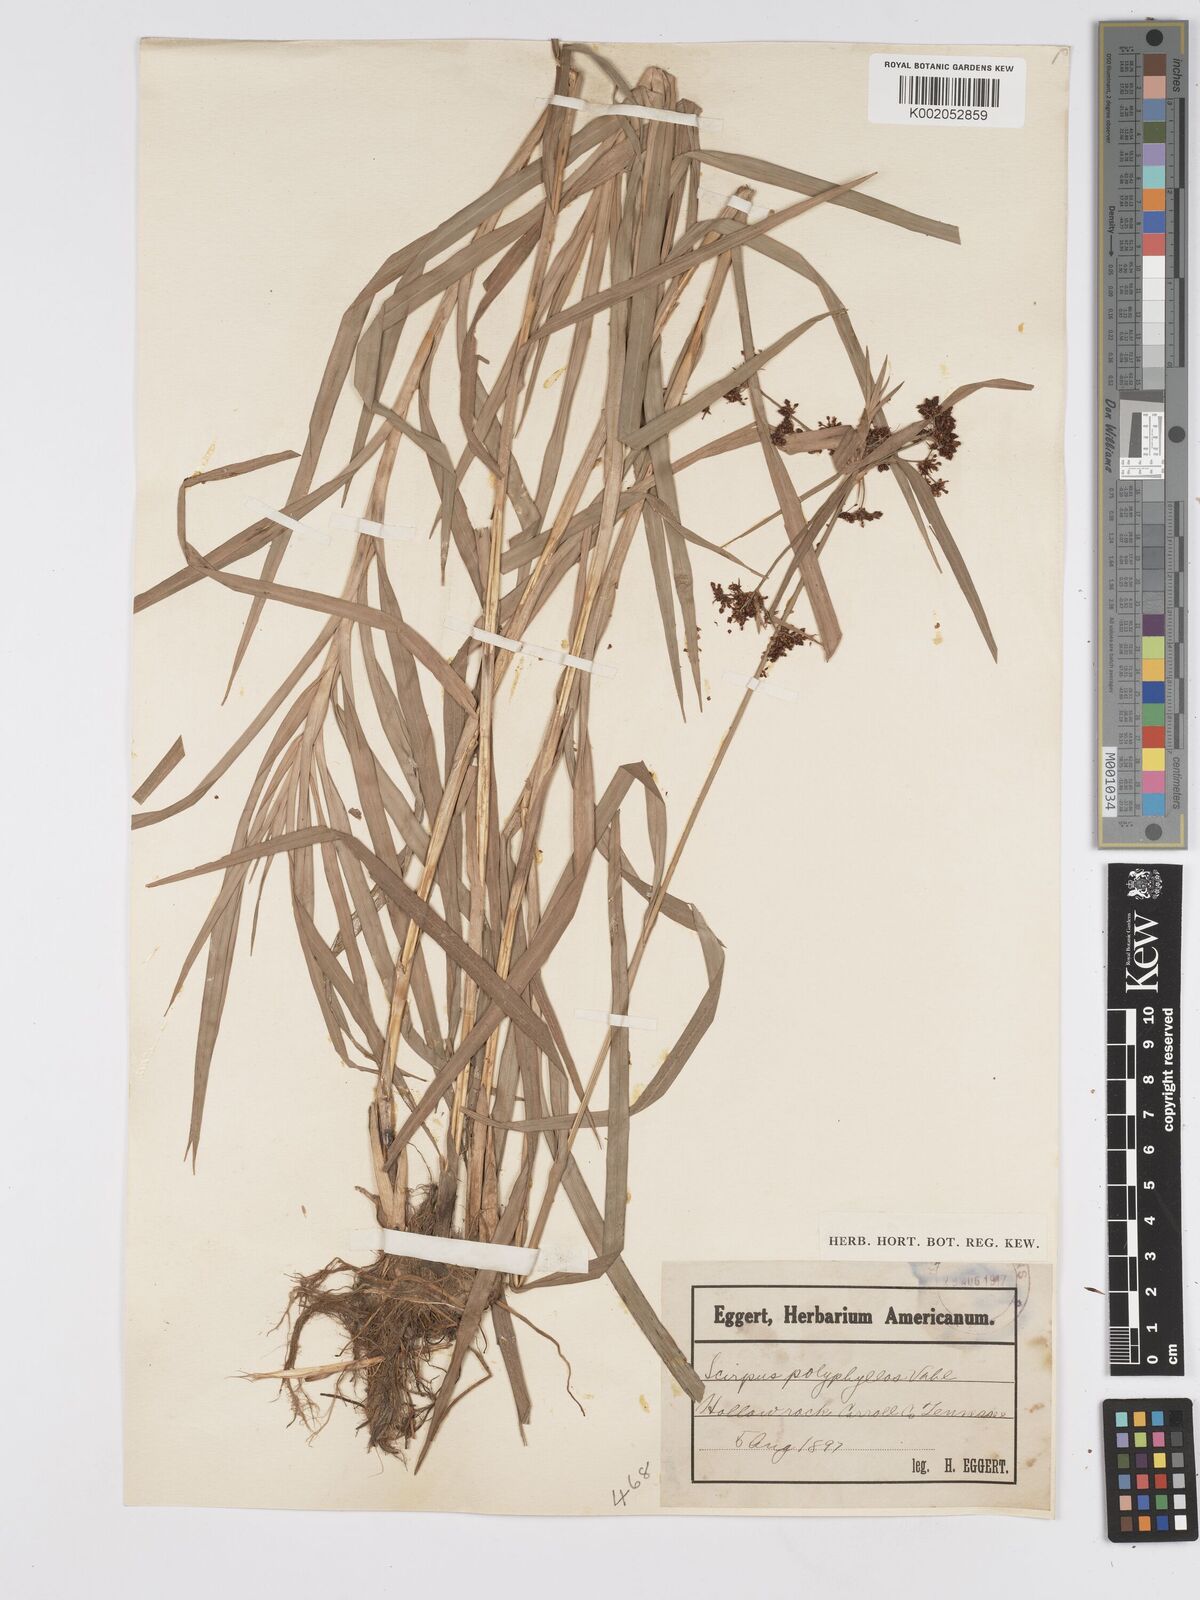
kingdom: Plantae
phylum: Tracheophyta
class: Liliopsida
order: Poales
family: Cyperaceae
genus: Scirpus
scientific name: Scirpus polyphyllus
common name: Leafy bulrush
